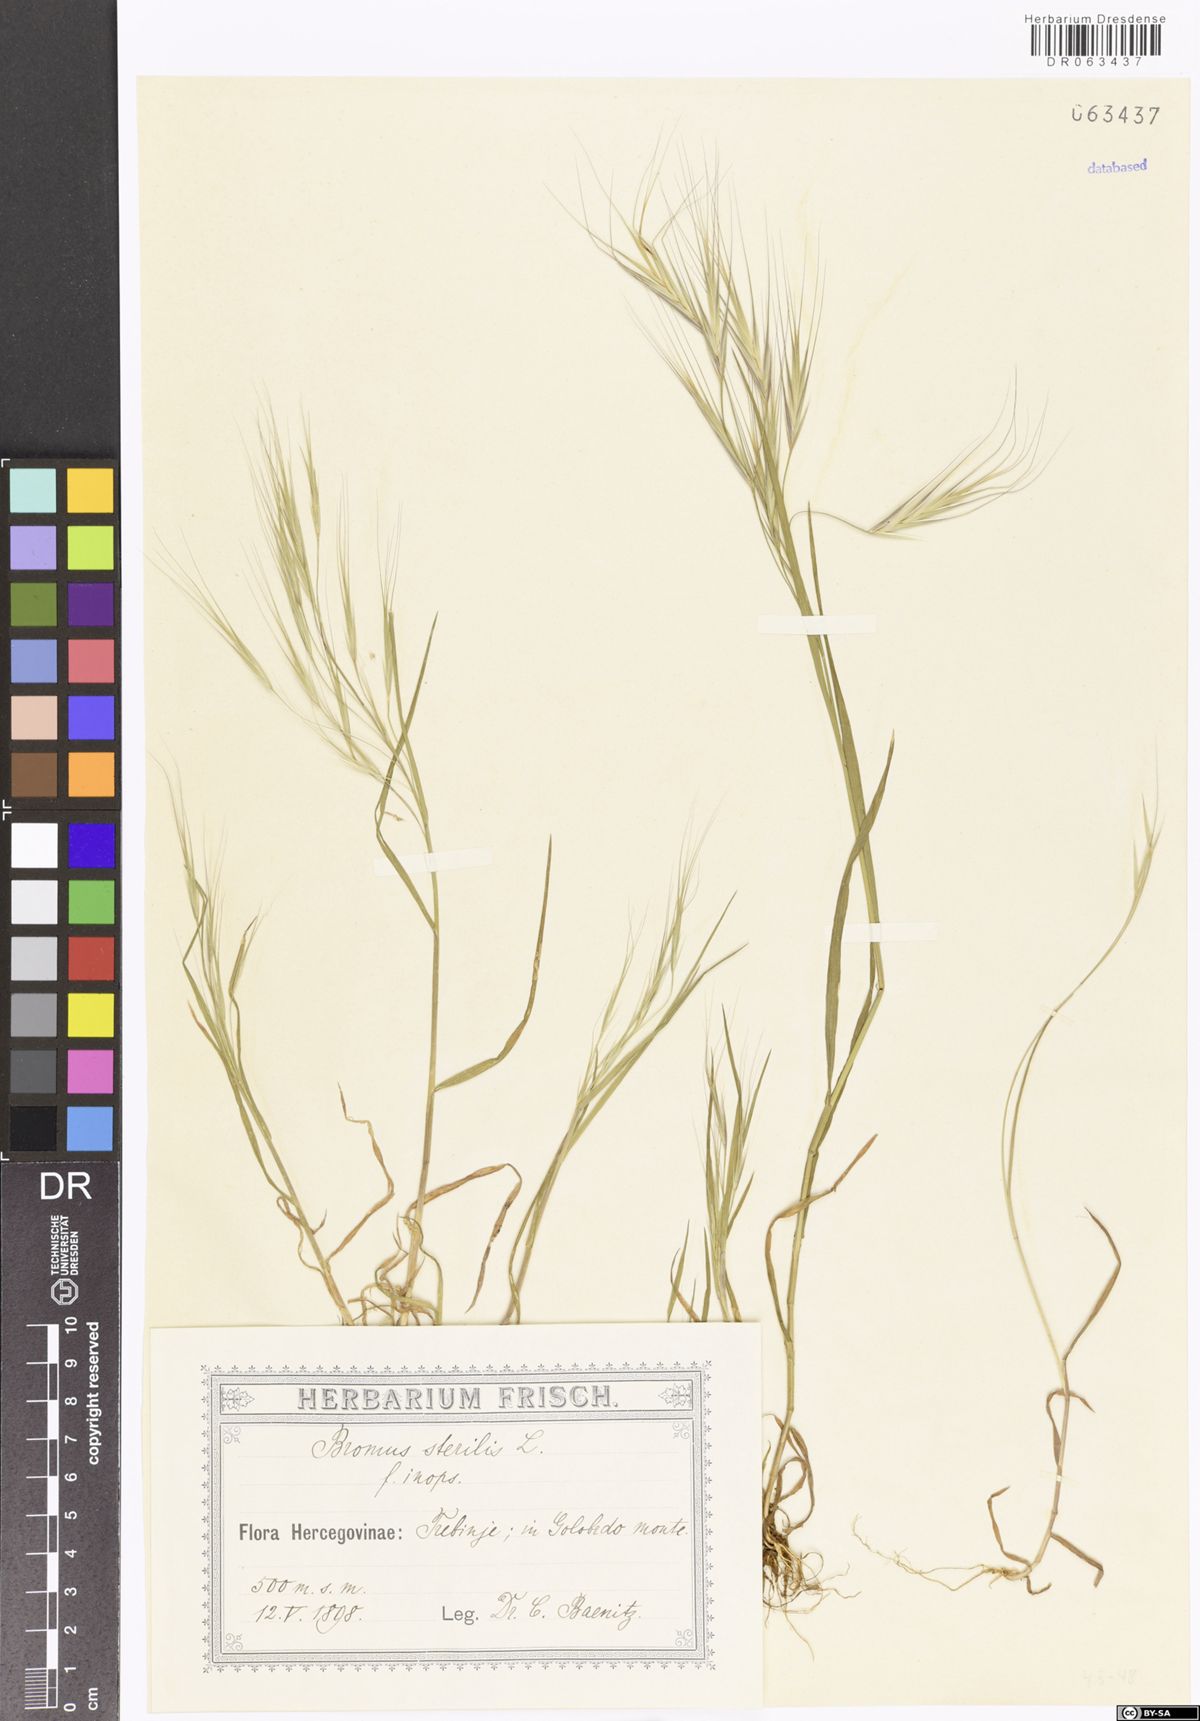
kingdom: Plantae
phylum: Tracheophyta
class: Liliopsida
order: Poales
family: Poaceae
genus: Bromus
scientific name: Bromus sterilis
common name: Poverty brome
